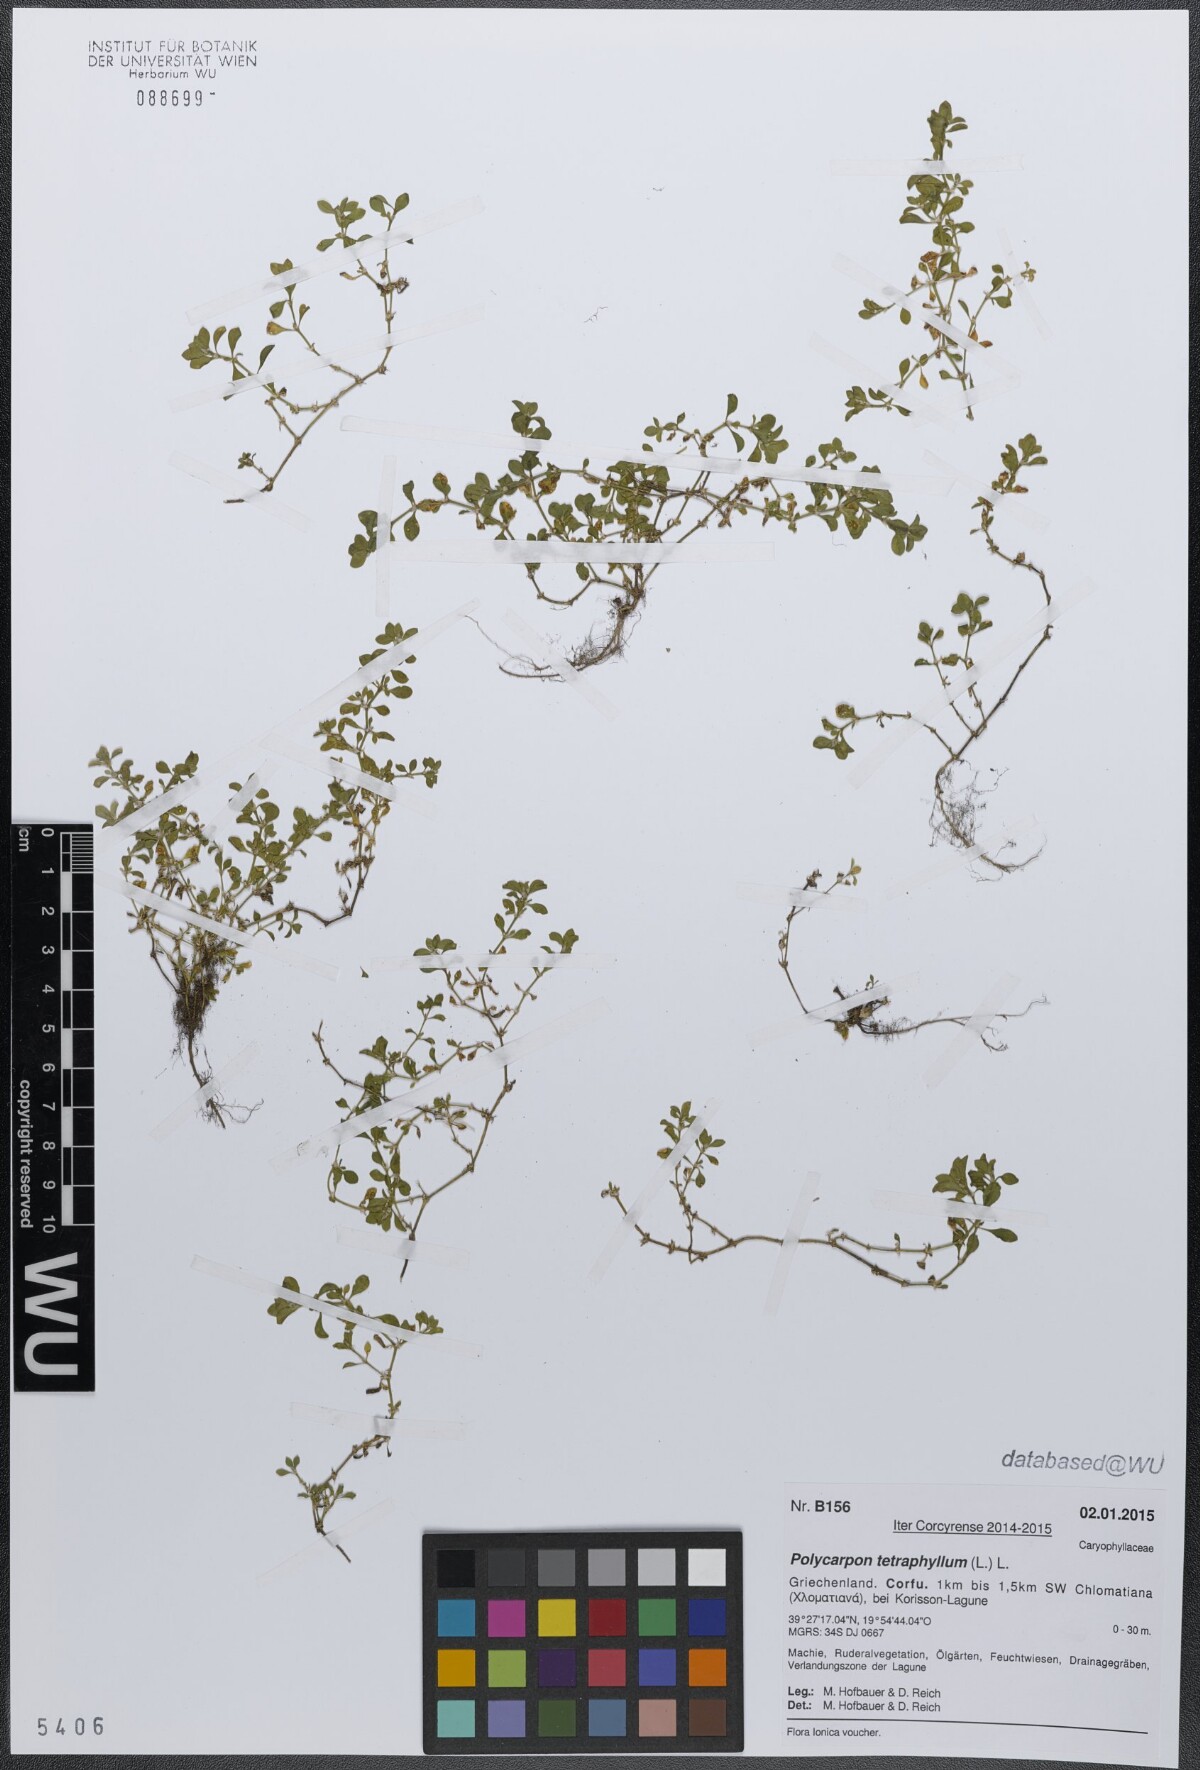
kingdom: Plantae
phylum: Tracheophyta
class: Magnoliopsida
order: Caryophyllales
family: Caryophyllaceae
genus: Polycarpon
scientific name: Polycarpon tetraphyllum
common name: Four-leaved all-seed
